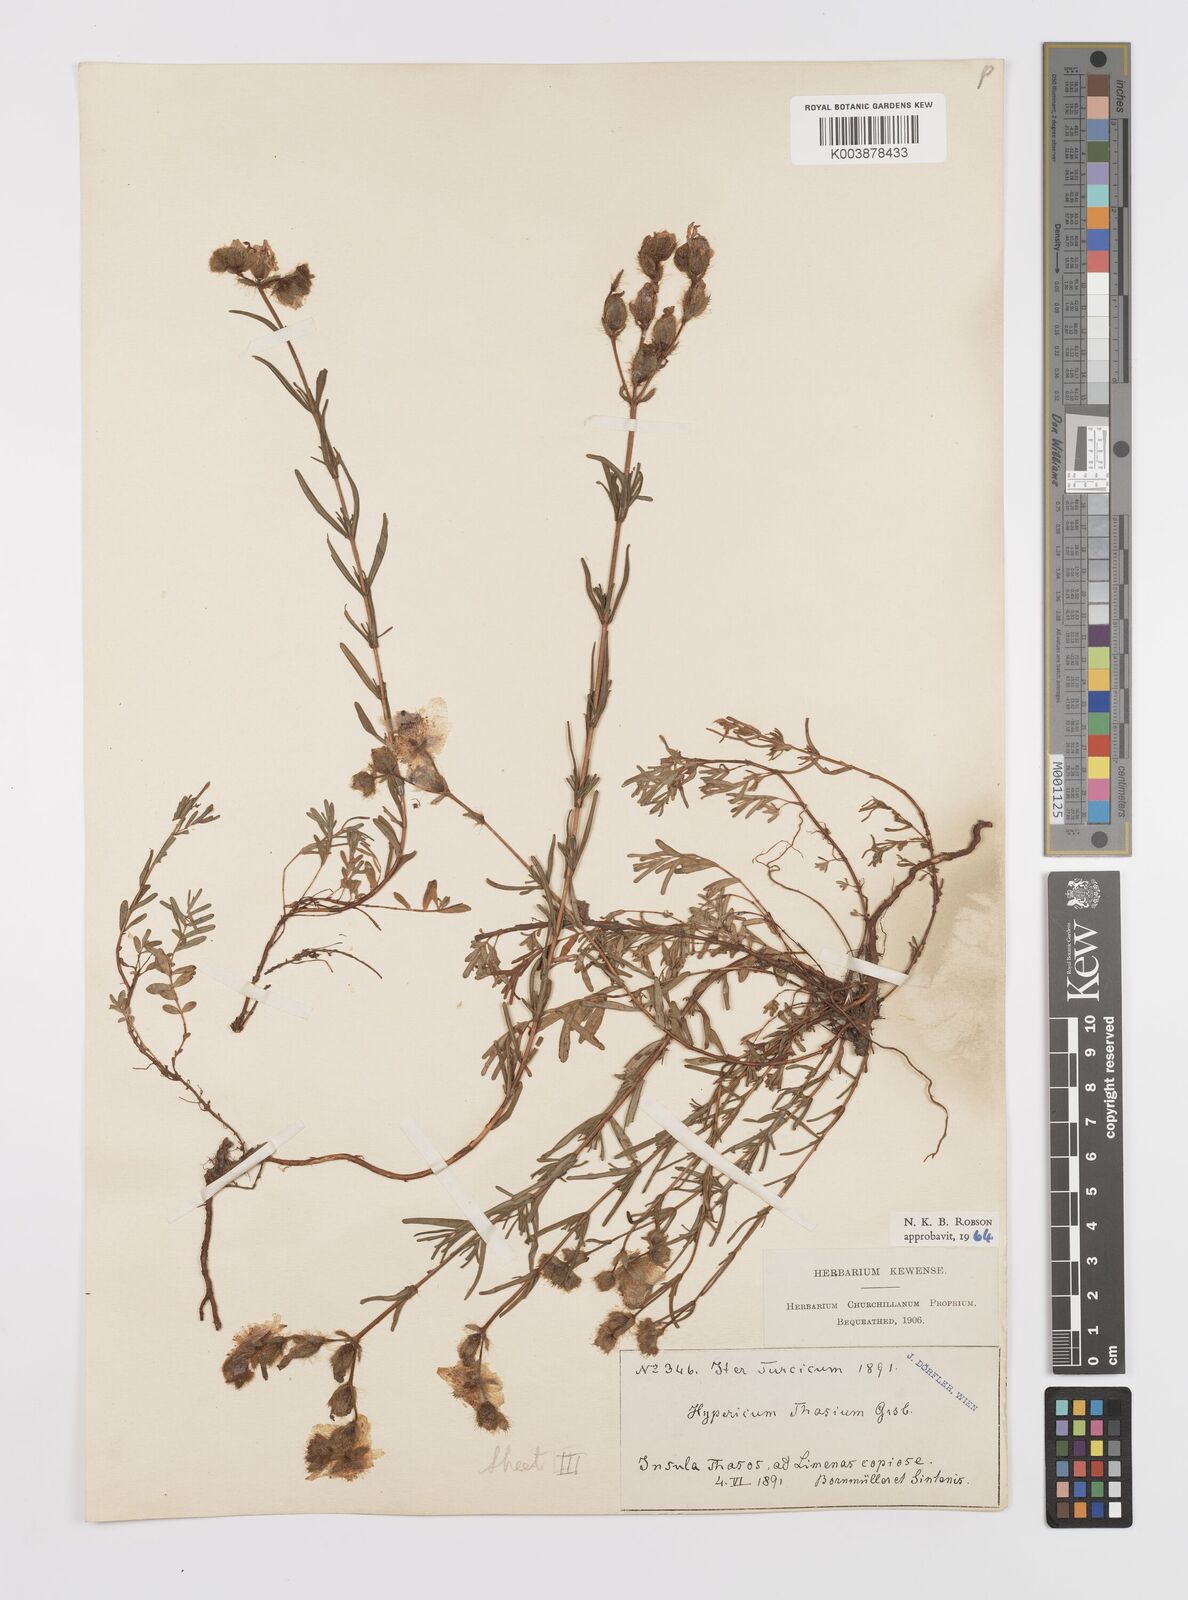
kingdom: Plantae
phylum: Tracheophyta
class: Magnoliopsida
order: Malpighiales
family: Hypericaceae
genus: Hypericum
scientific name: Hypericum thasium
